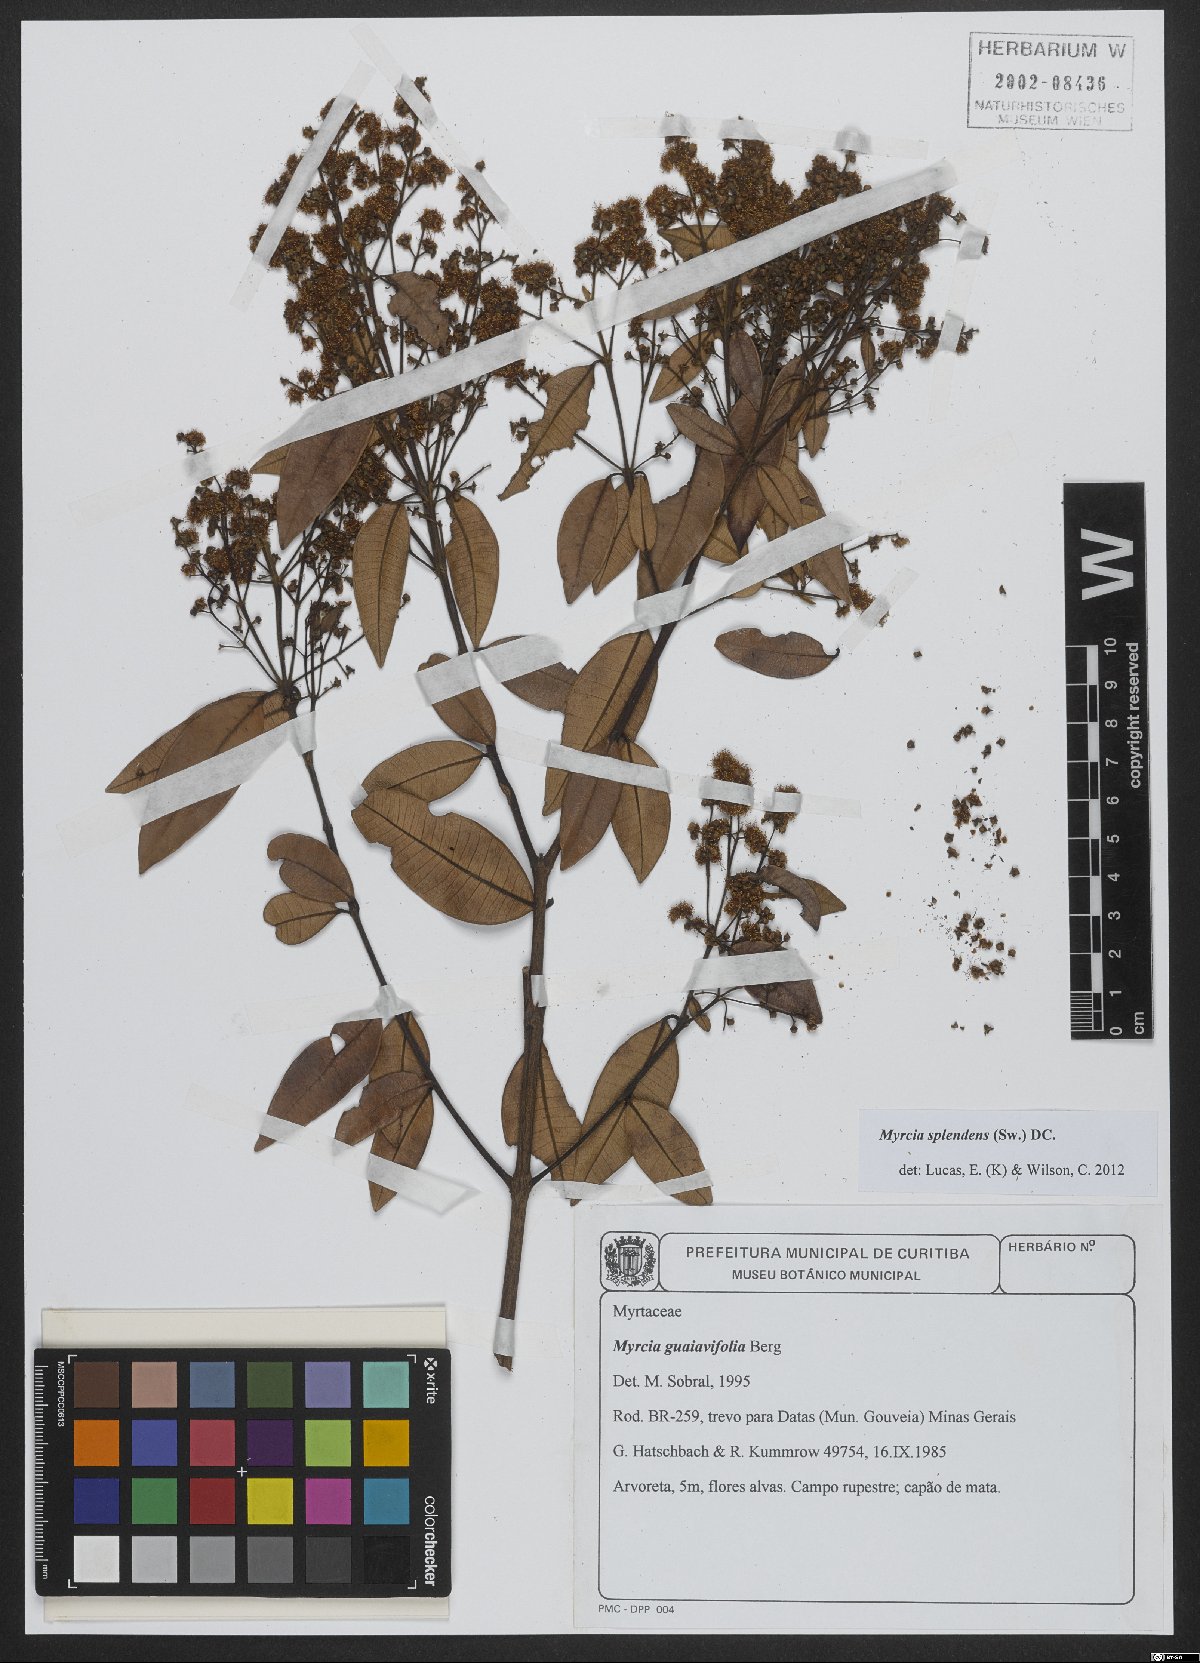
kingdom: Plantae
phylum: Tracheophyta
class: Magnoliopsida
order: Myrtales
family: Myrtaceae
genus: Myrcia
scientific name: Myrcia splendens
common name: Surinam cherry
